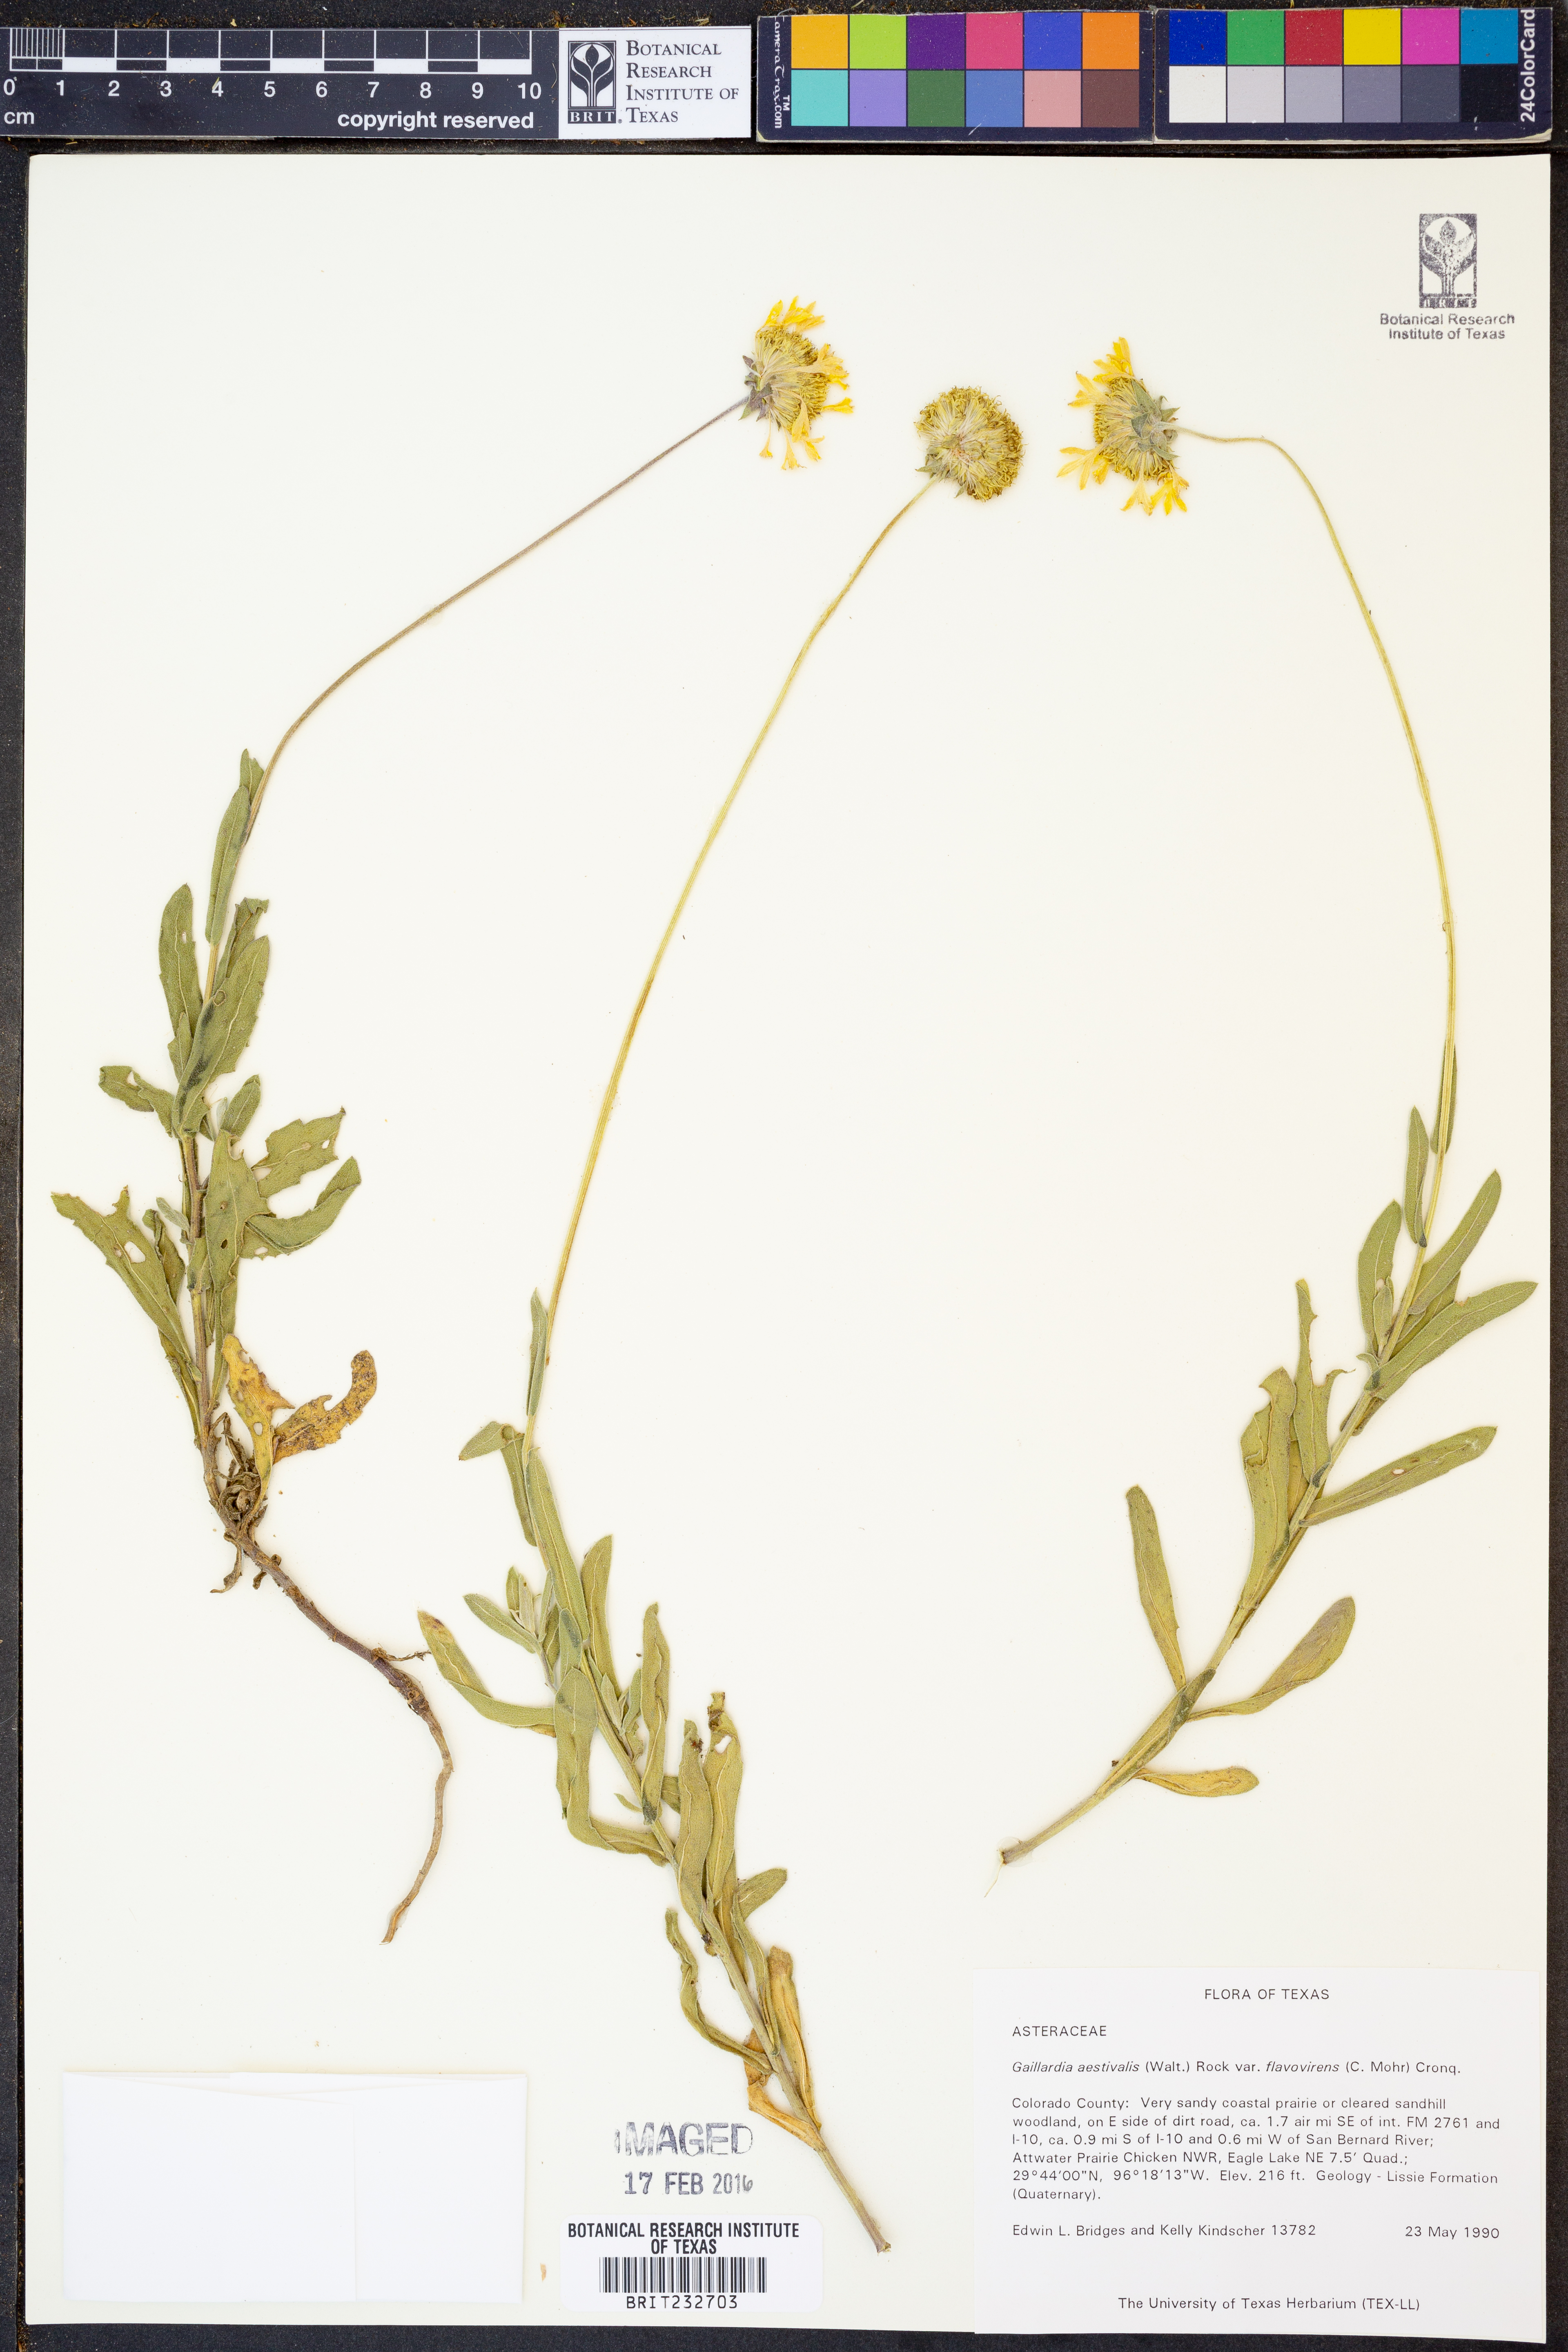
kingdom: Plantae
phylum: Tracheophyta
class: Magnoliopsida
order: Asterales
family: Asteraceae
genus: Gaillardia
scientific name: Gaillardia aestivalis
